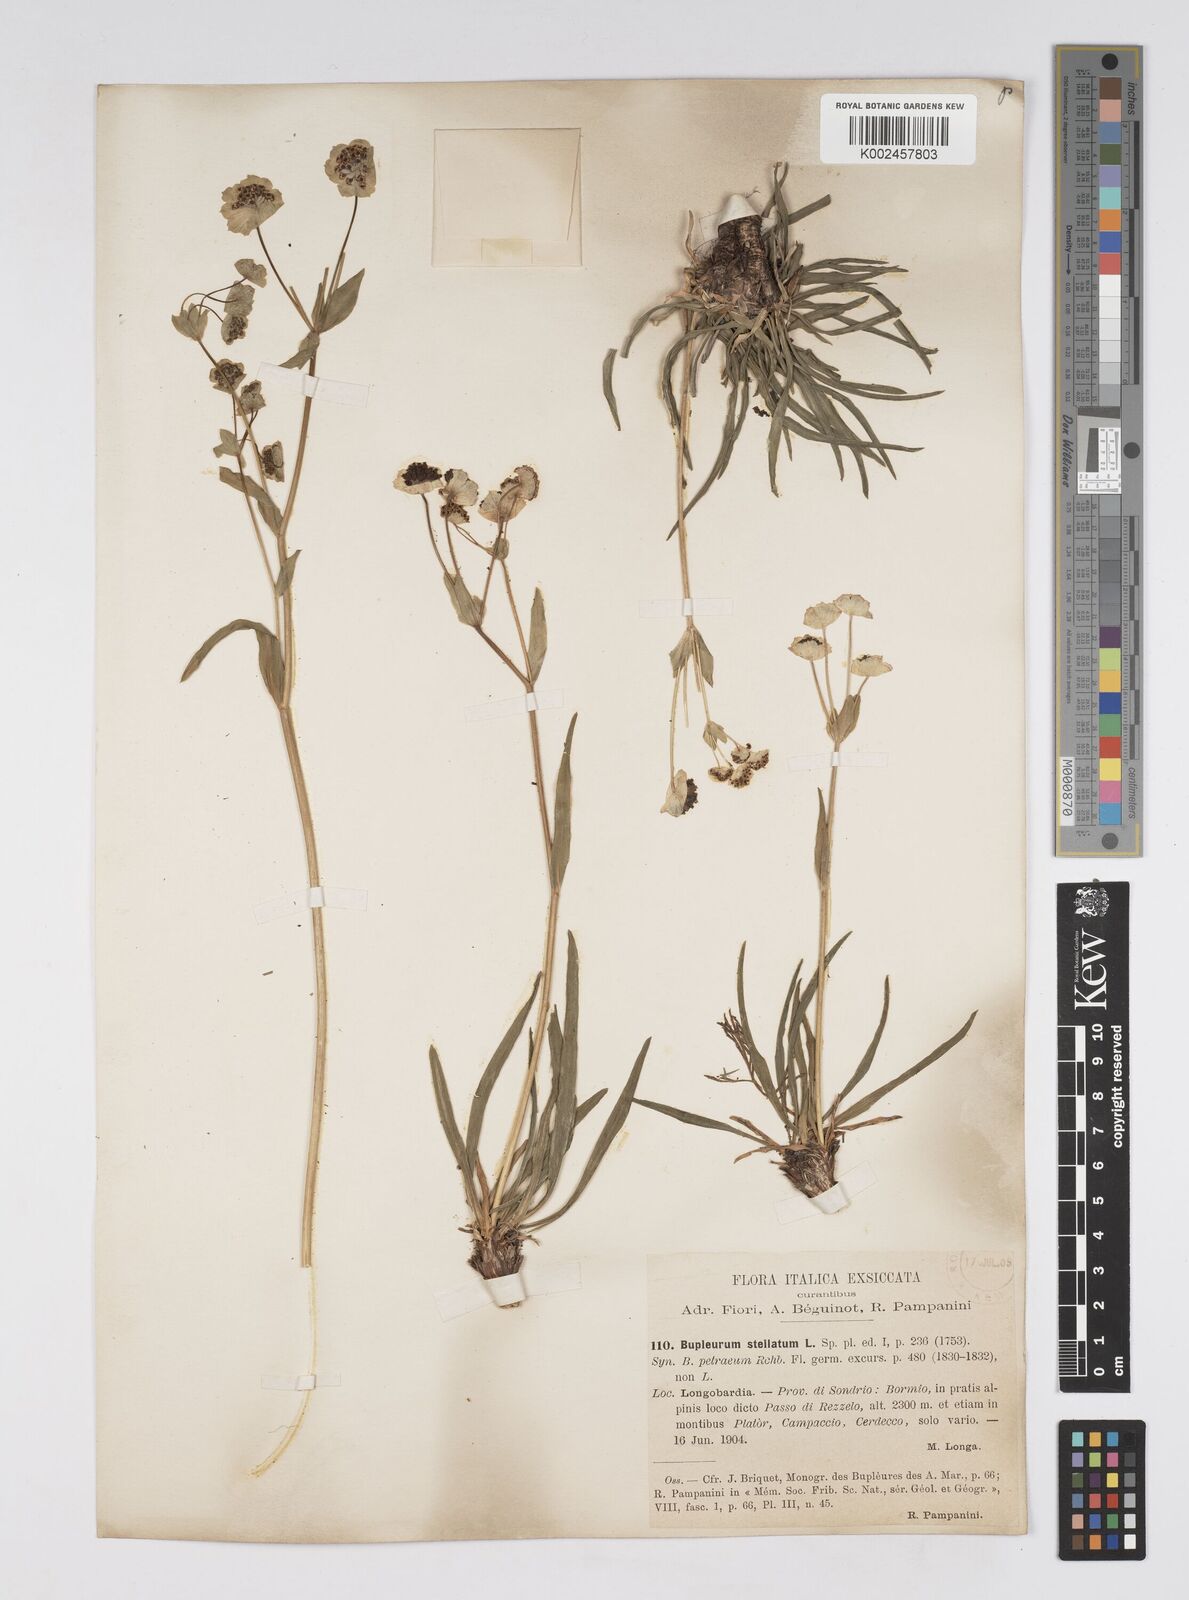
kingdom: Plantae
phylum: Tracheophyta
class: Magnoliopsida
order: Apiales
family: Apiaceae
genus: Bupleurum
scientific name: Bupleurum stellatum
